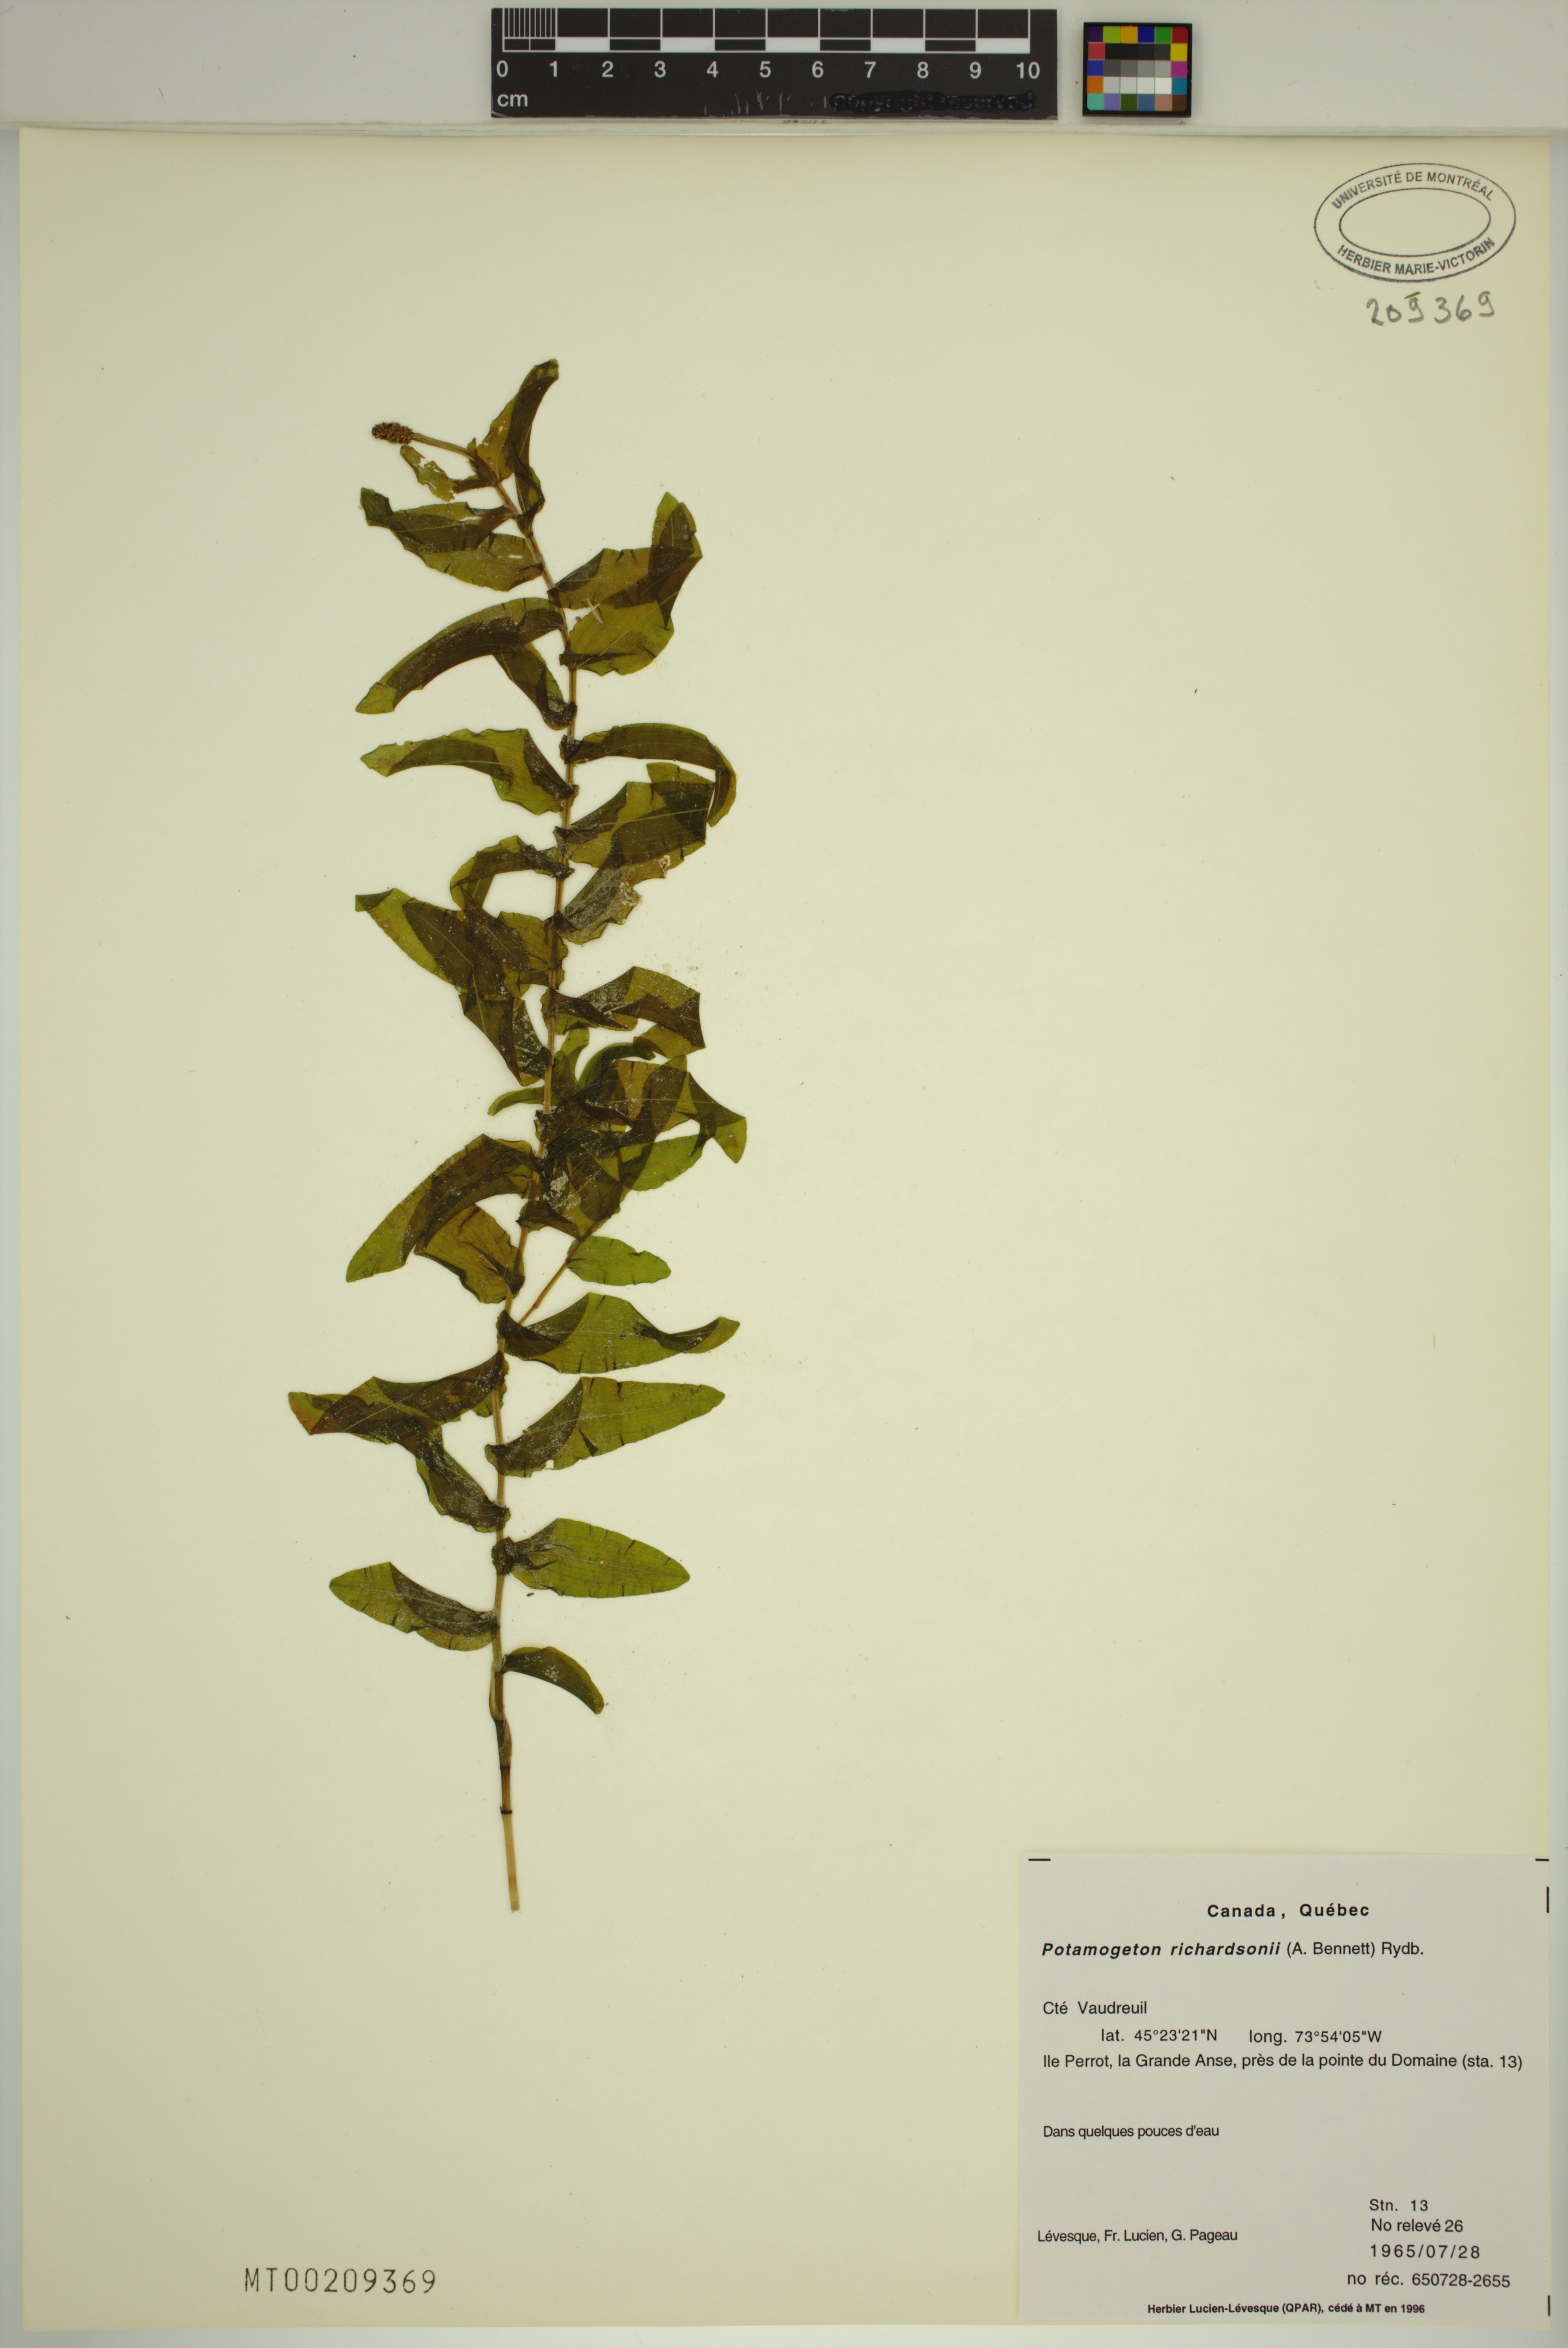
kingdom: Plantae
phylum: Tracheophyta
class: Liliopsida
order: Alismatales
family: Potamogetonaceae
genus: Potamogeton
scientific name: Potamogeton richardsonii
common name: Richardson's pondweed
